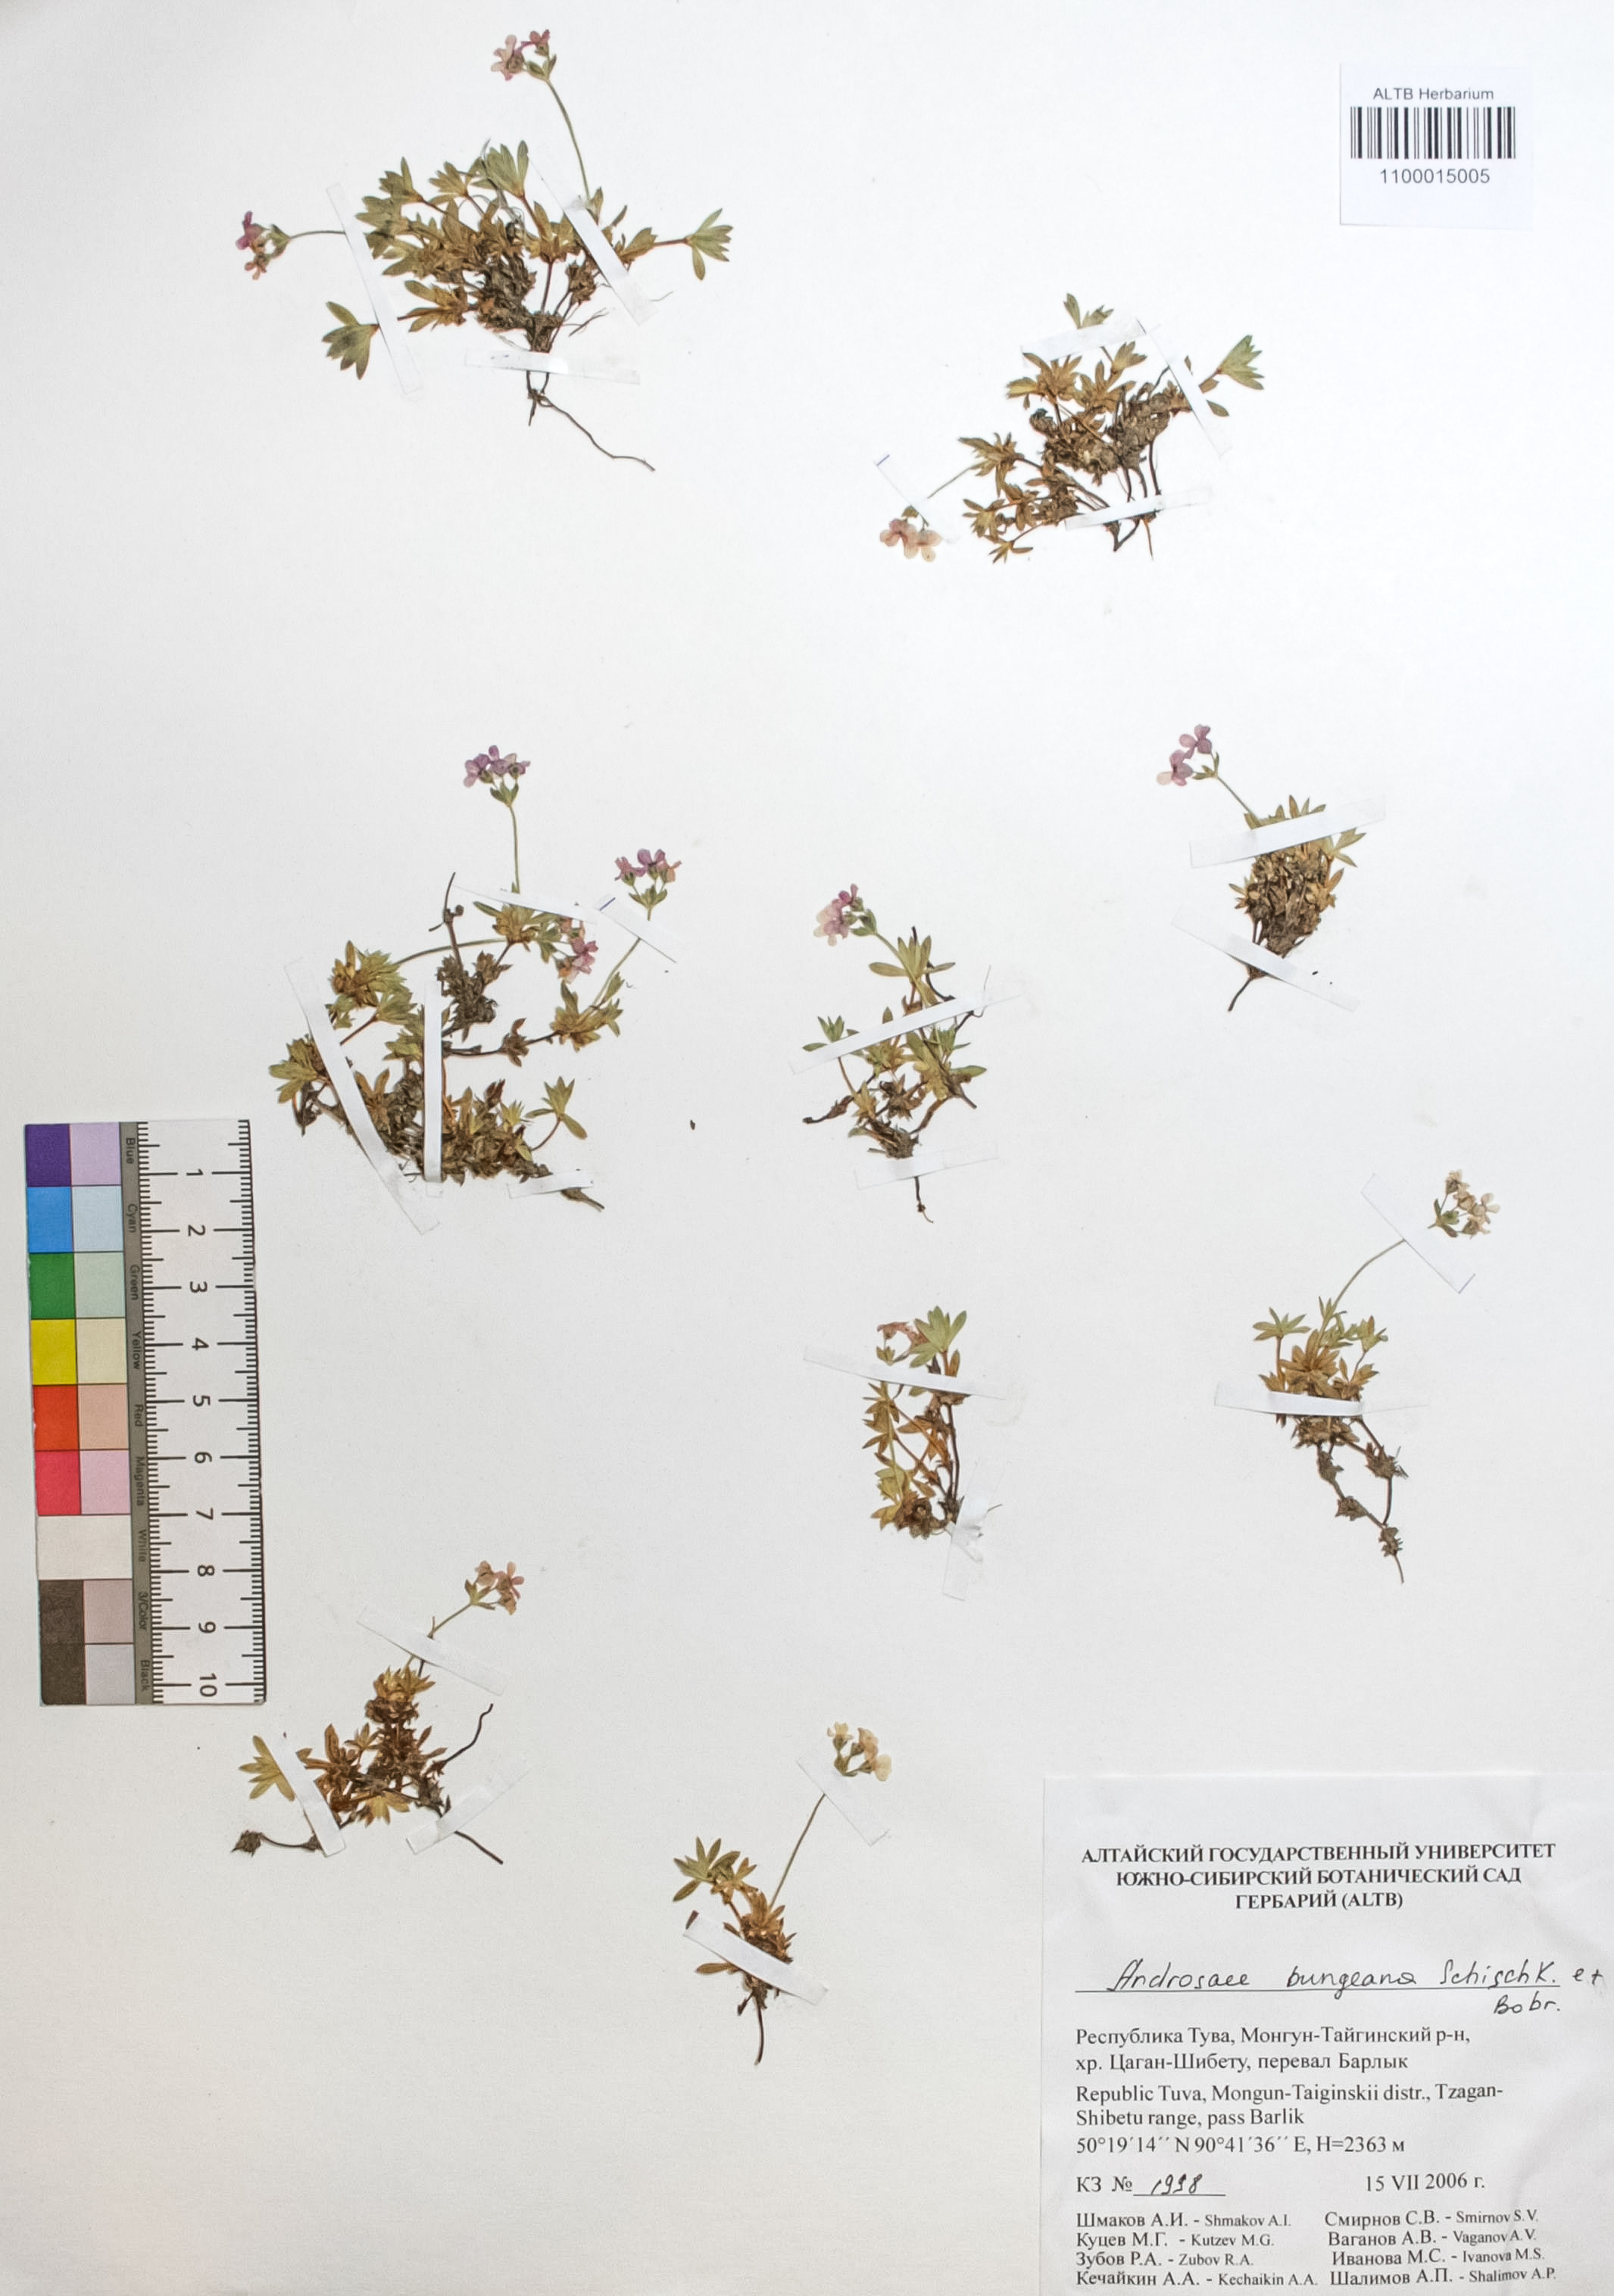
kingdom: Plantae
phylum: Tracheophyta
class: Magnoliopsida
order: Ericales
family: Primulaceae
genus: Androsace
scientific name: Androsace bungeana
